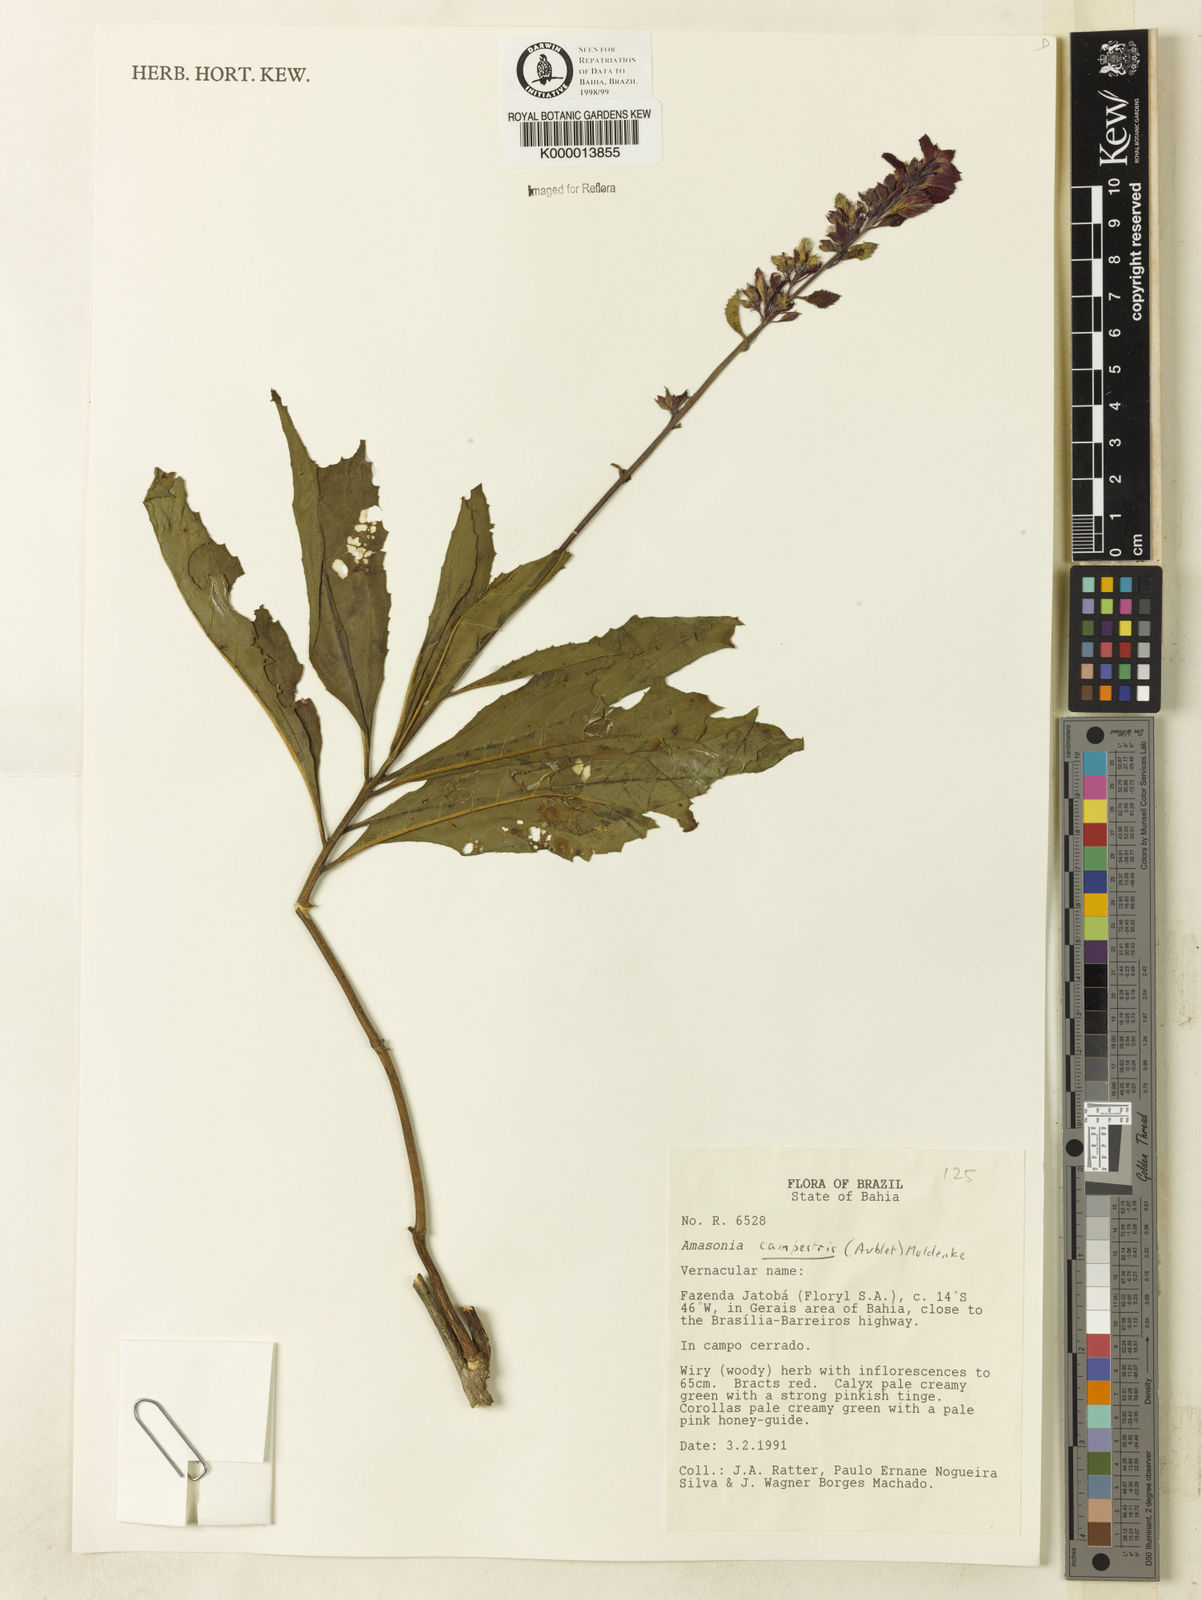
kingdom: Plantae
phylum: Tracheophyta
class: Magnoliopsida
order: Lamiales
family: Lamiaceae
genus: Amasonia
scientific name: Amasonia campestris
